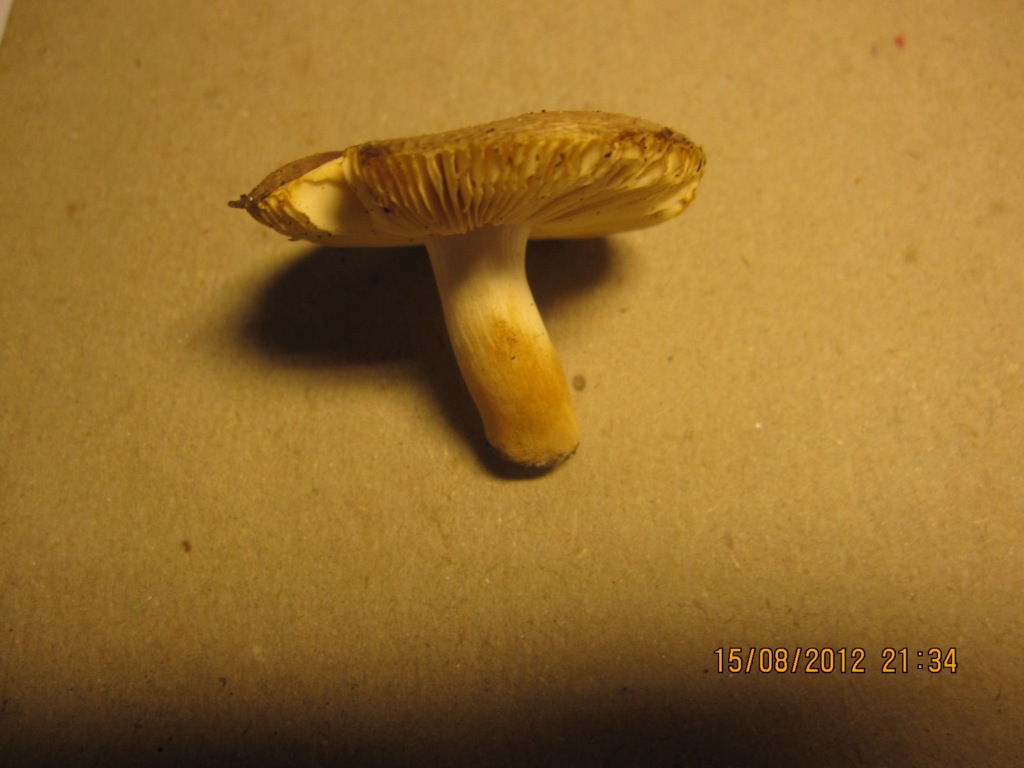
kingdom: Fungi
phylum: Basidiomycota
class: Agaricomycetes
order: Russulales
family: Russulaceae
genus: Russula
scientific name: Russula puellaris
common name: gulstokket skørhat
